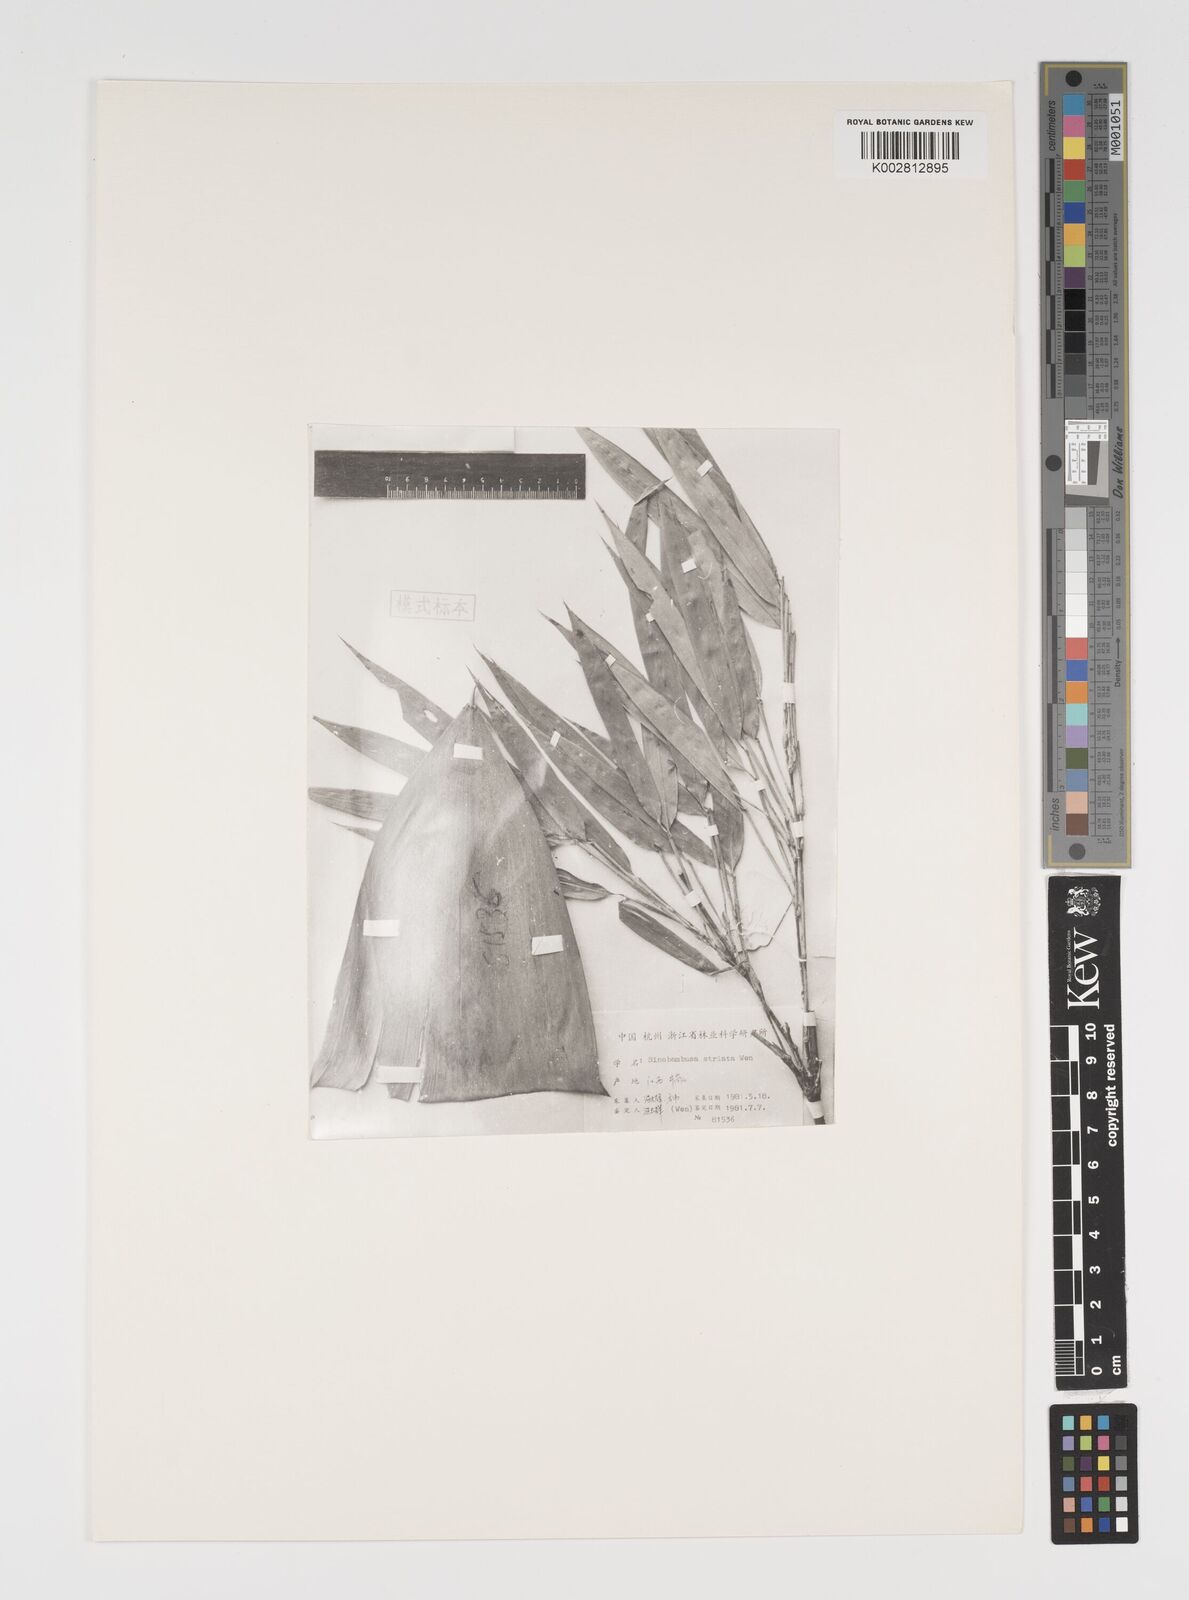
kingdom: Plantae
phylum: Tracheophyta
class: Liliopsida
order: Poales
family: Poaceae
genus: Indosasa
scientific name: Indosasa longispicata
